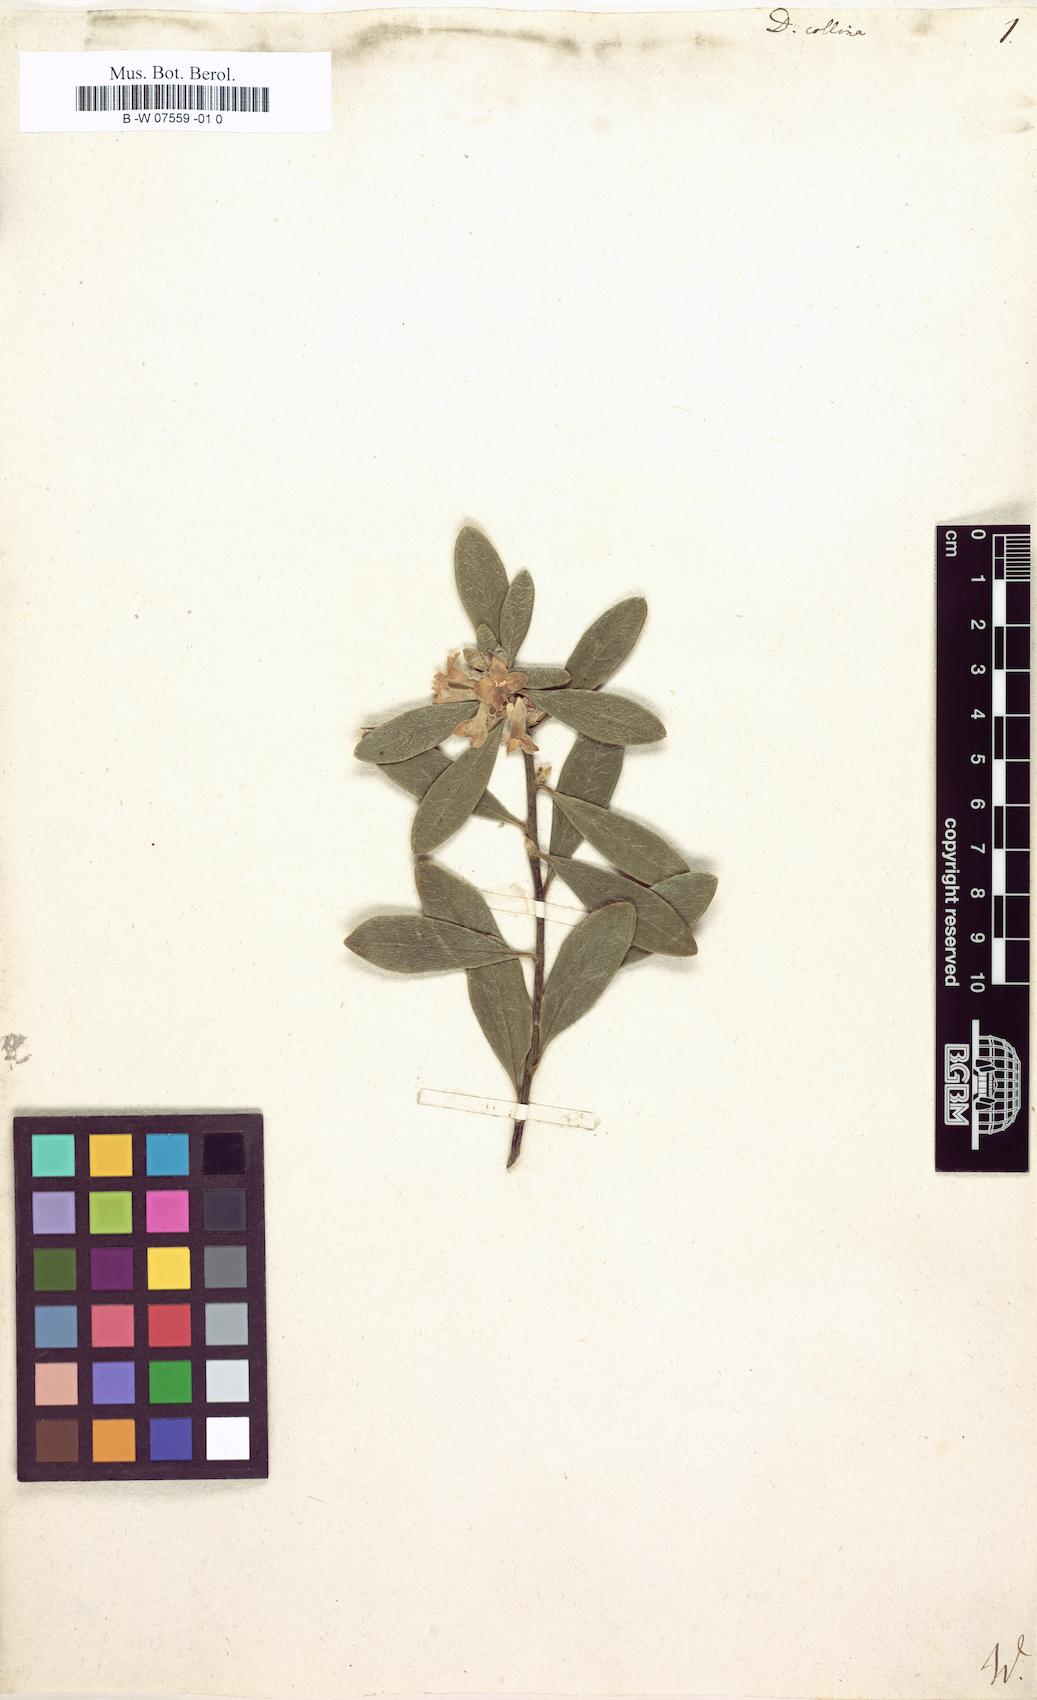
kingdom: Plantae
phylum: Tracheophyta
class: Magnoliopsida
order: Malvales
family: Thymelaeaceae
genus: Daphne
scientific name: Daphne
